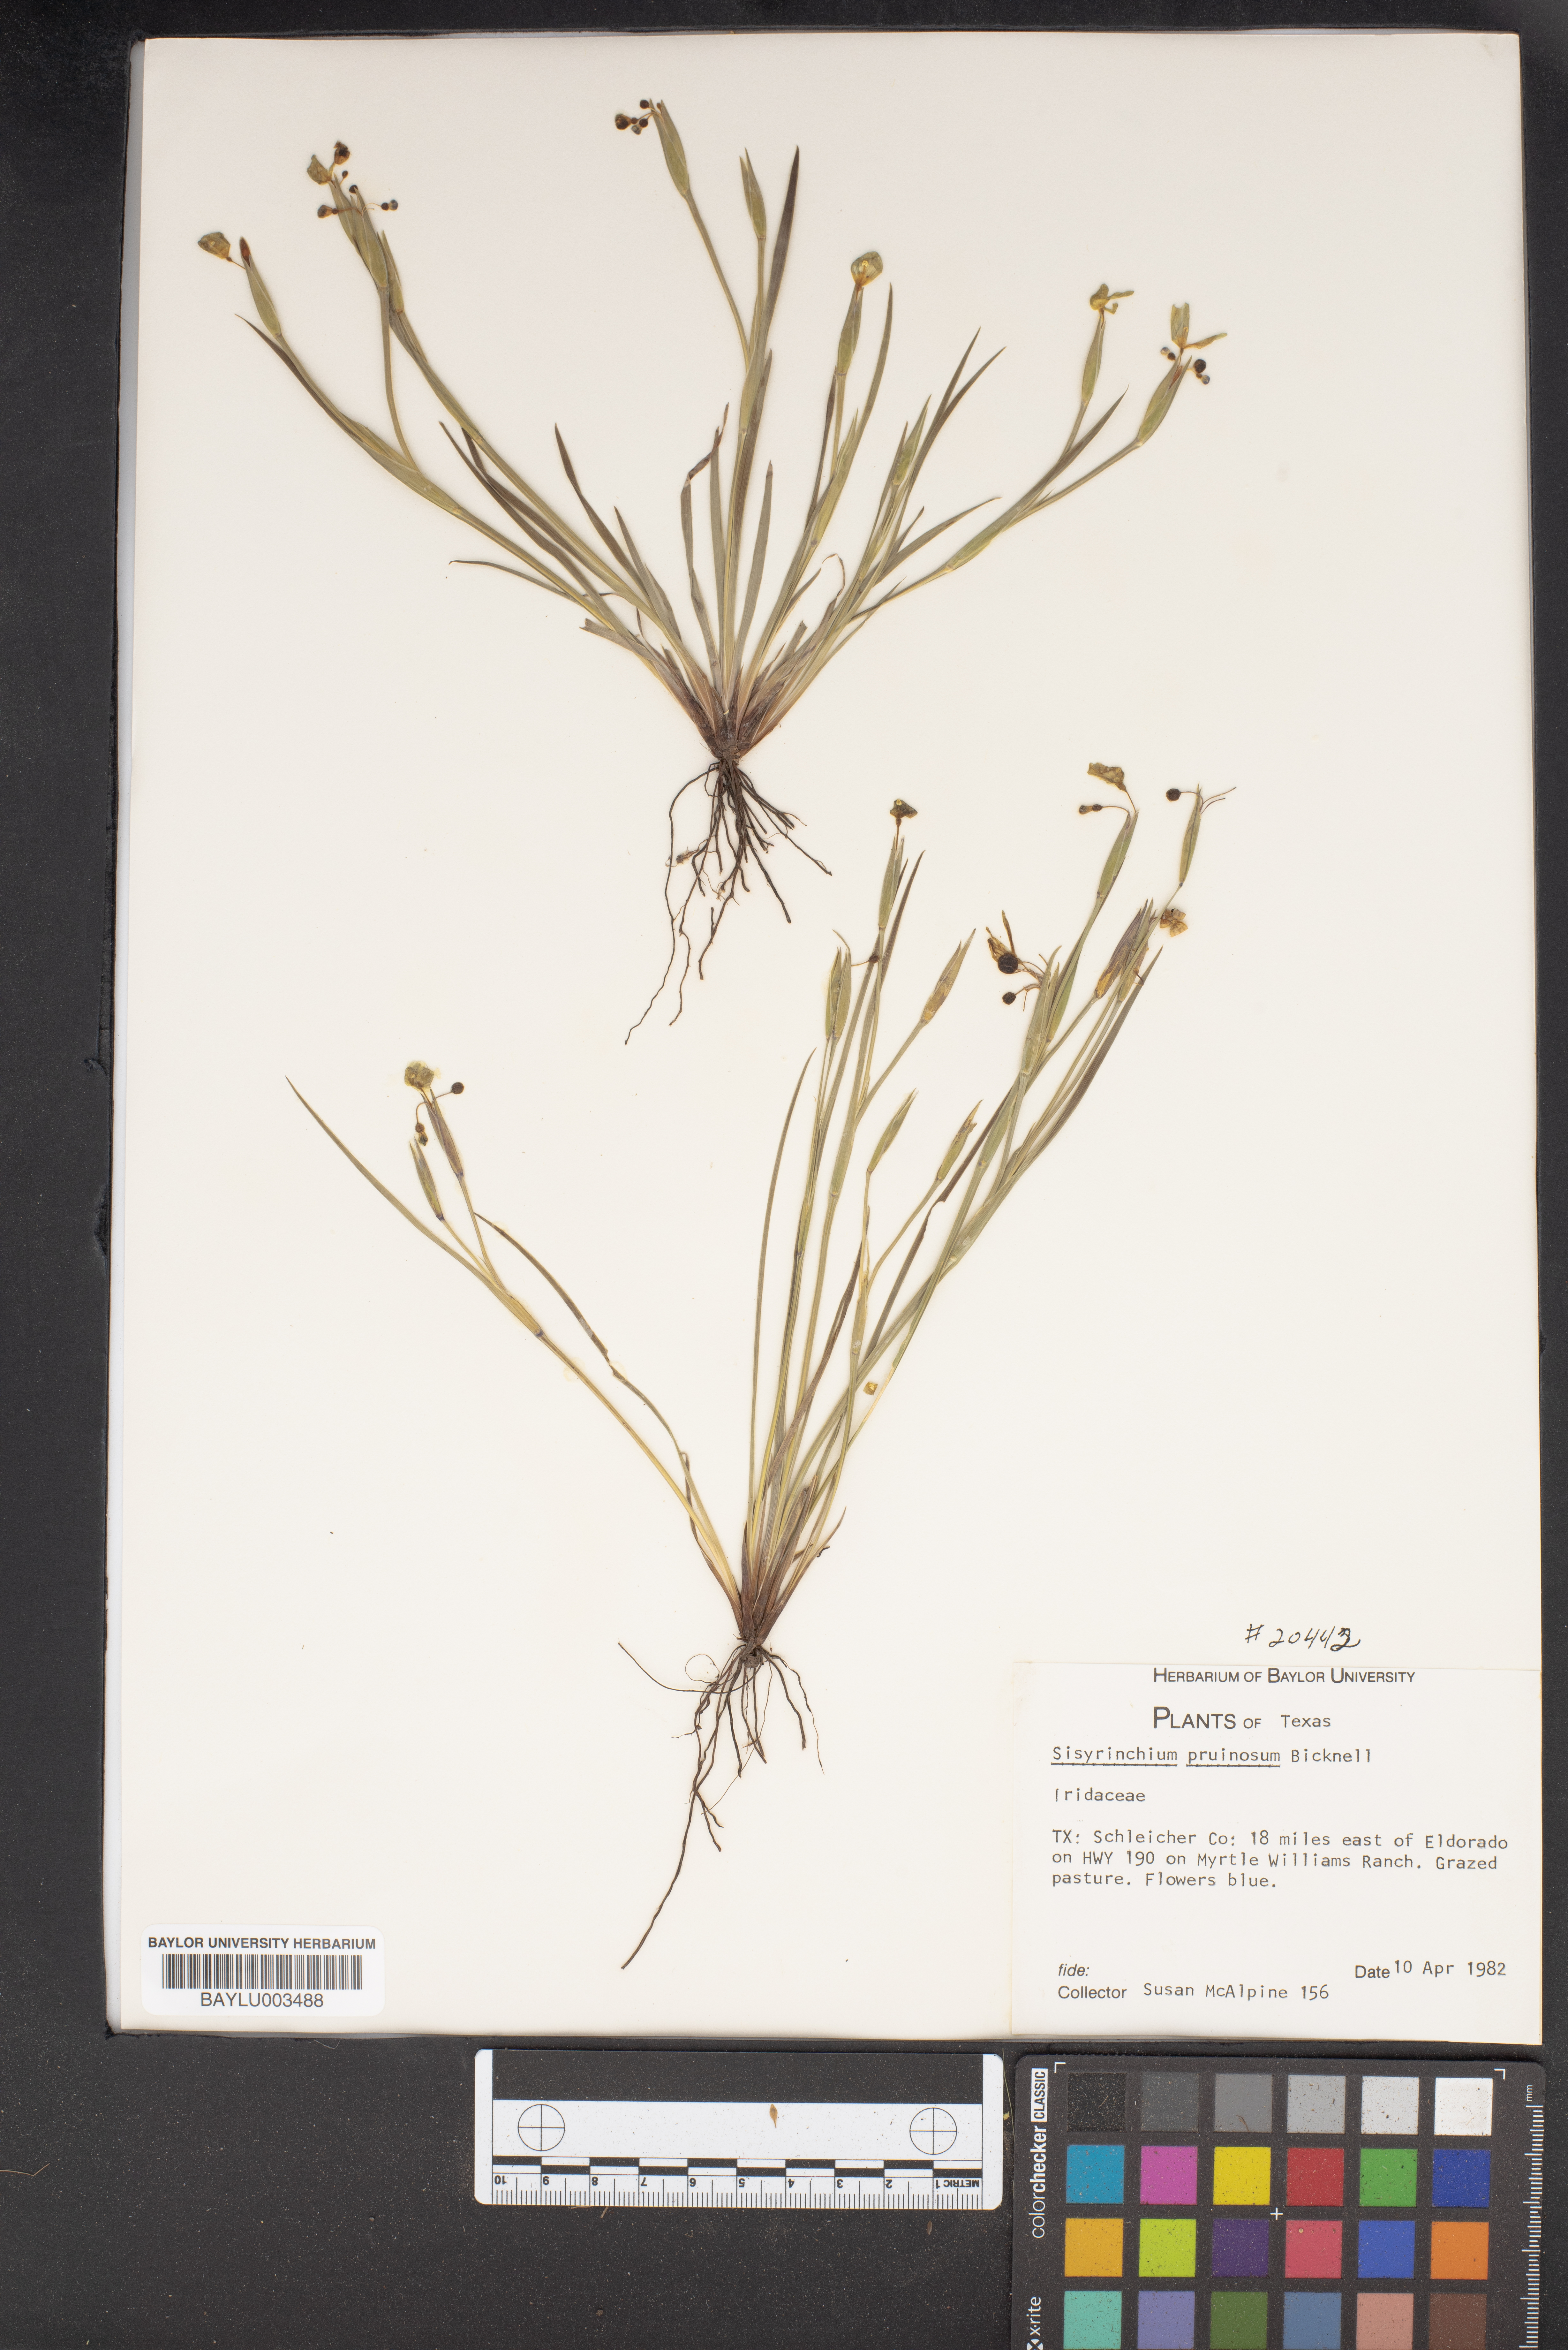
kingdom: Plantae
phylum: Tracheophyta
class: Liliopsida
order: Asparagales
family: Iridaceae
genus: Sisyrinchium
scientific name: Sisyrinchium pruinosum
